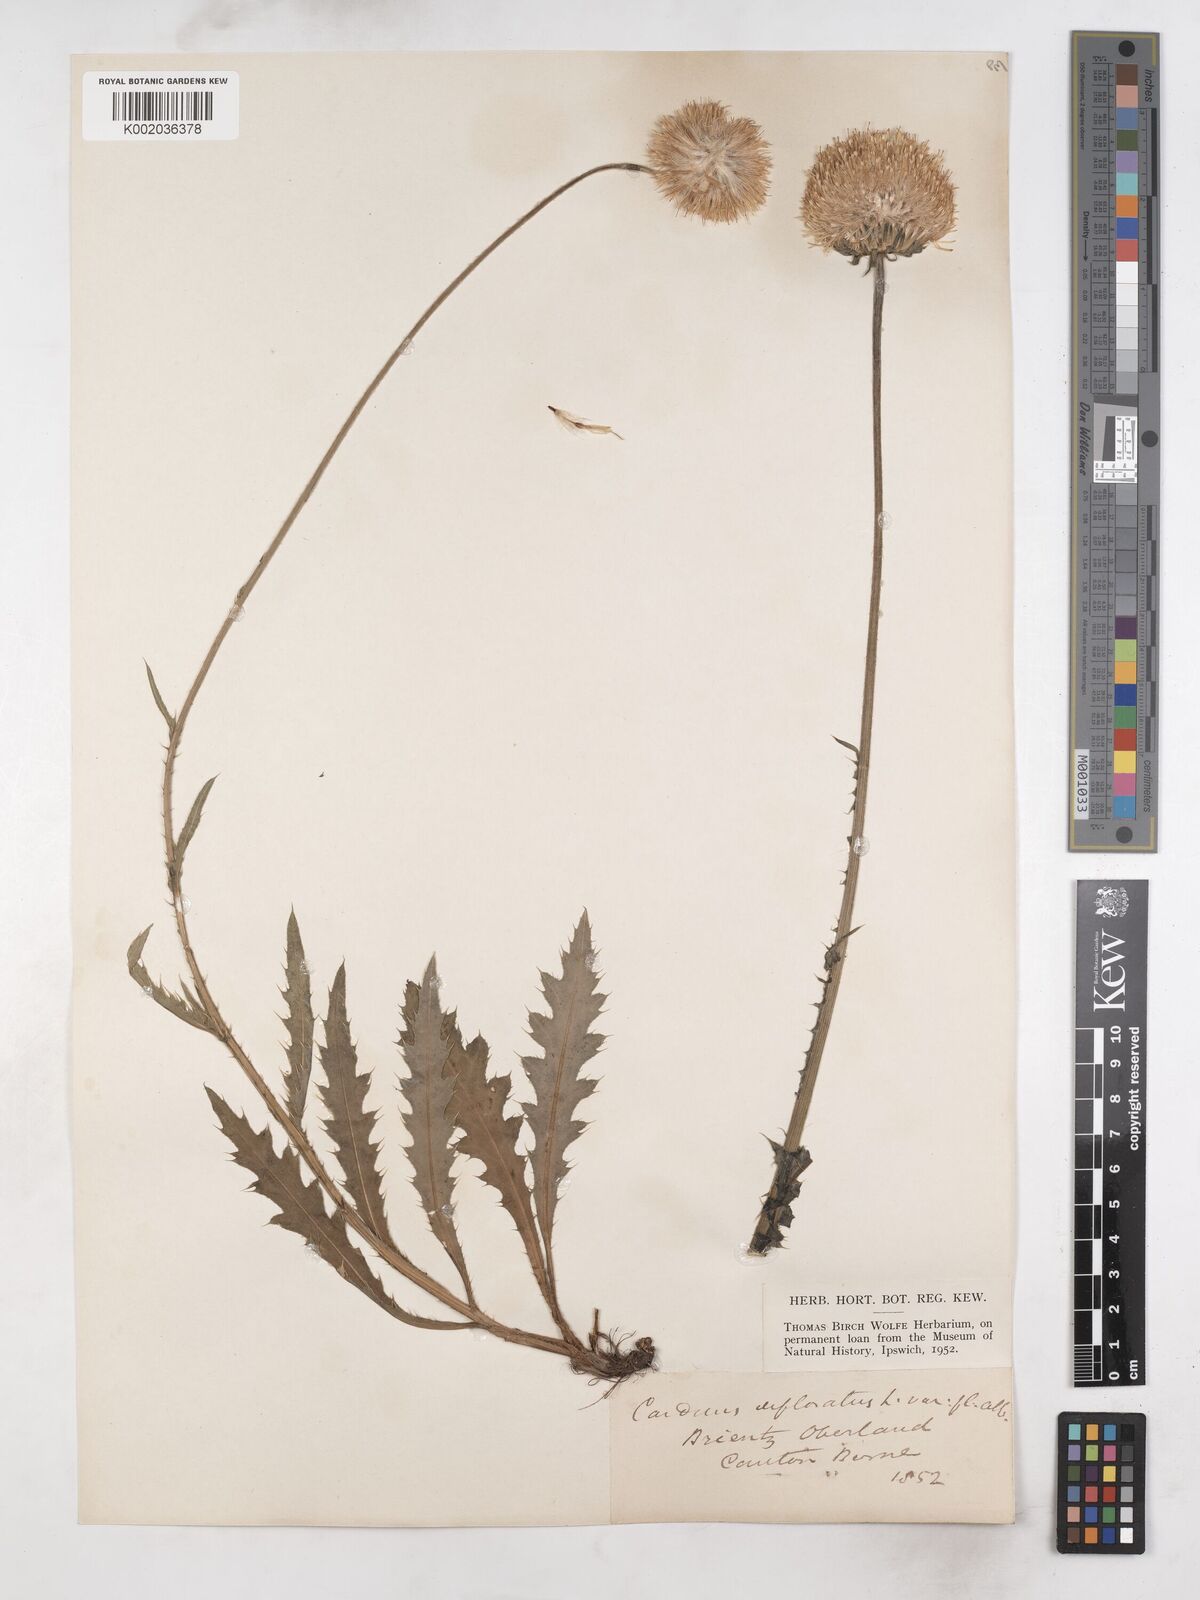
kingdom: Plantae
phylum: Tracheophyta
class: Magnoliopsida
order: Asterales
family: Asteraceae
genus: Carduus
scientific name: Carduus defloratus
